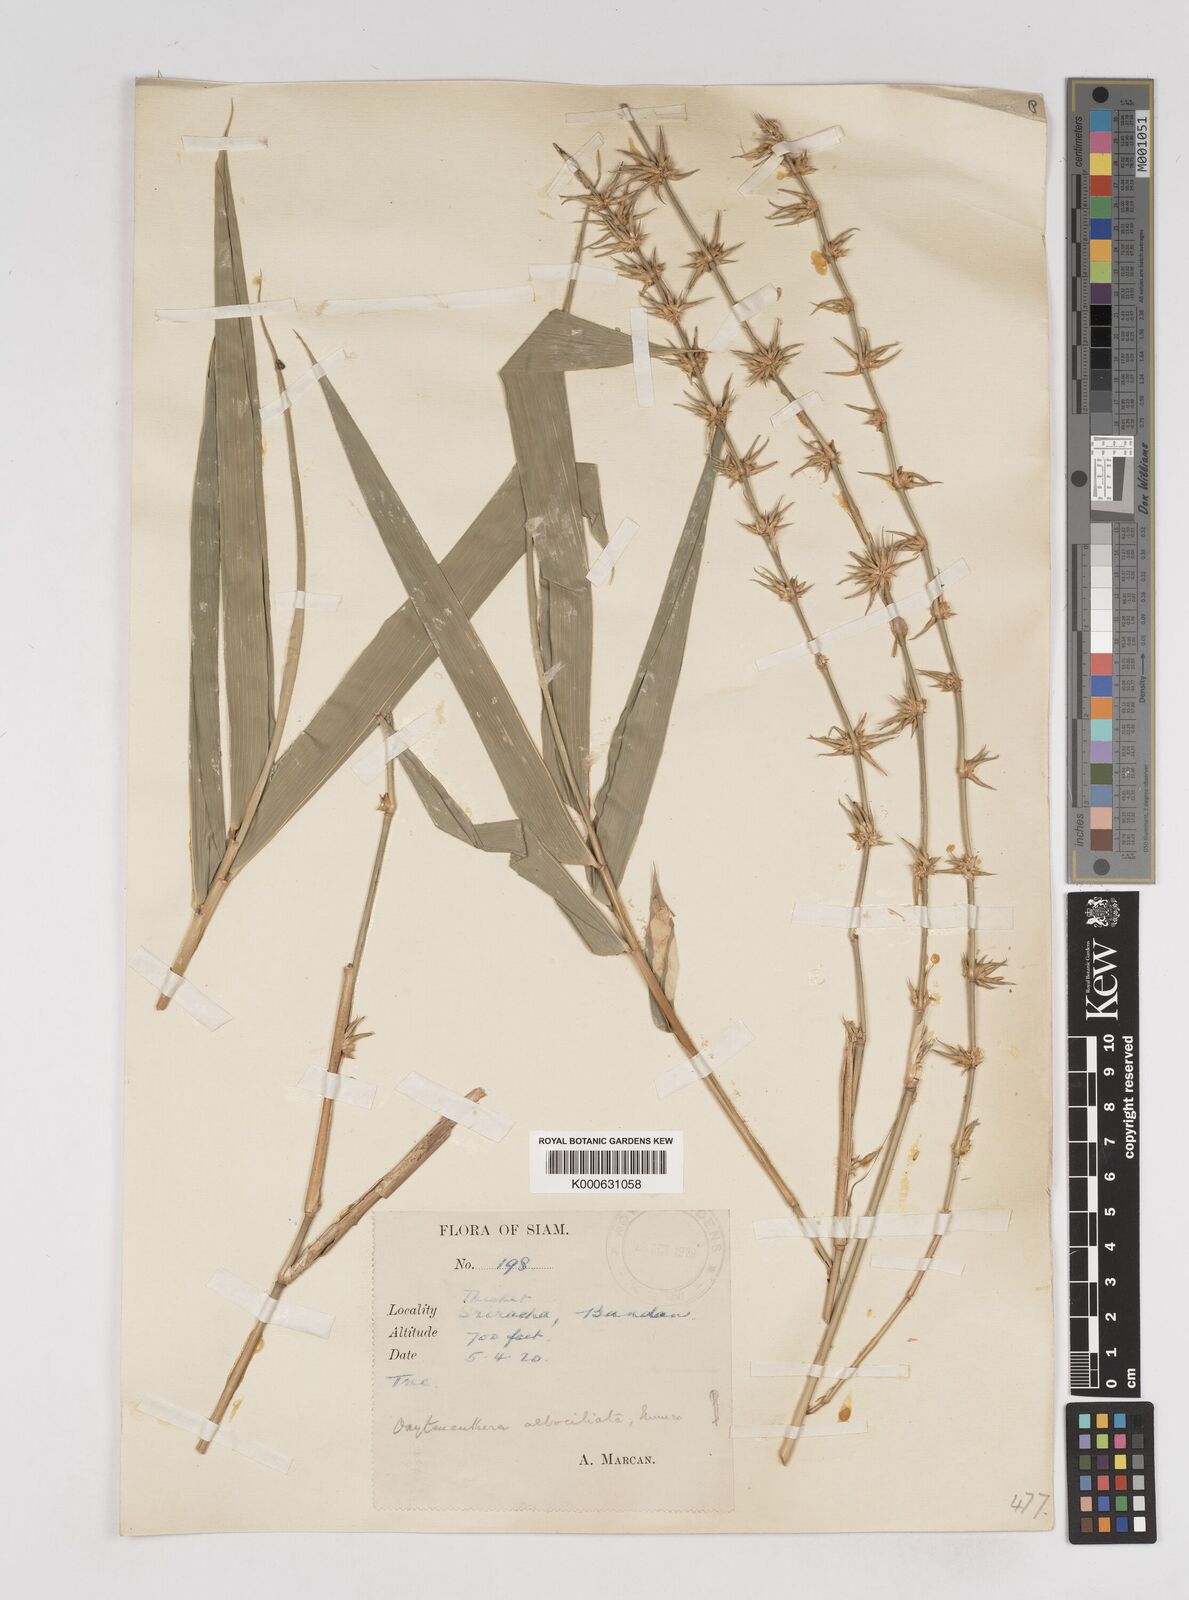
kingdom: Plantae
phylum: Tracheophyta
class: Liliopsida
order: Poales
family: Poaceae
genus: Gigantochloa
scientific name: Gigantochloa albociliata
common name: White-fringe gigantochloa
